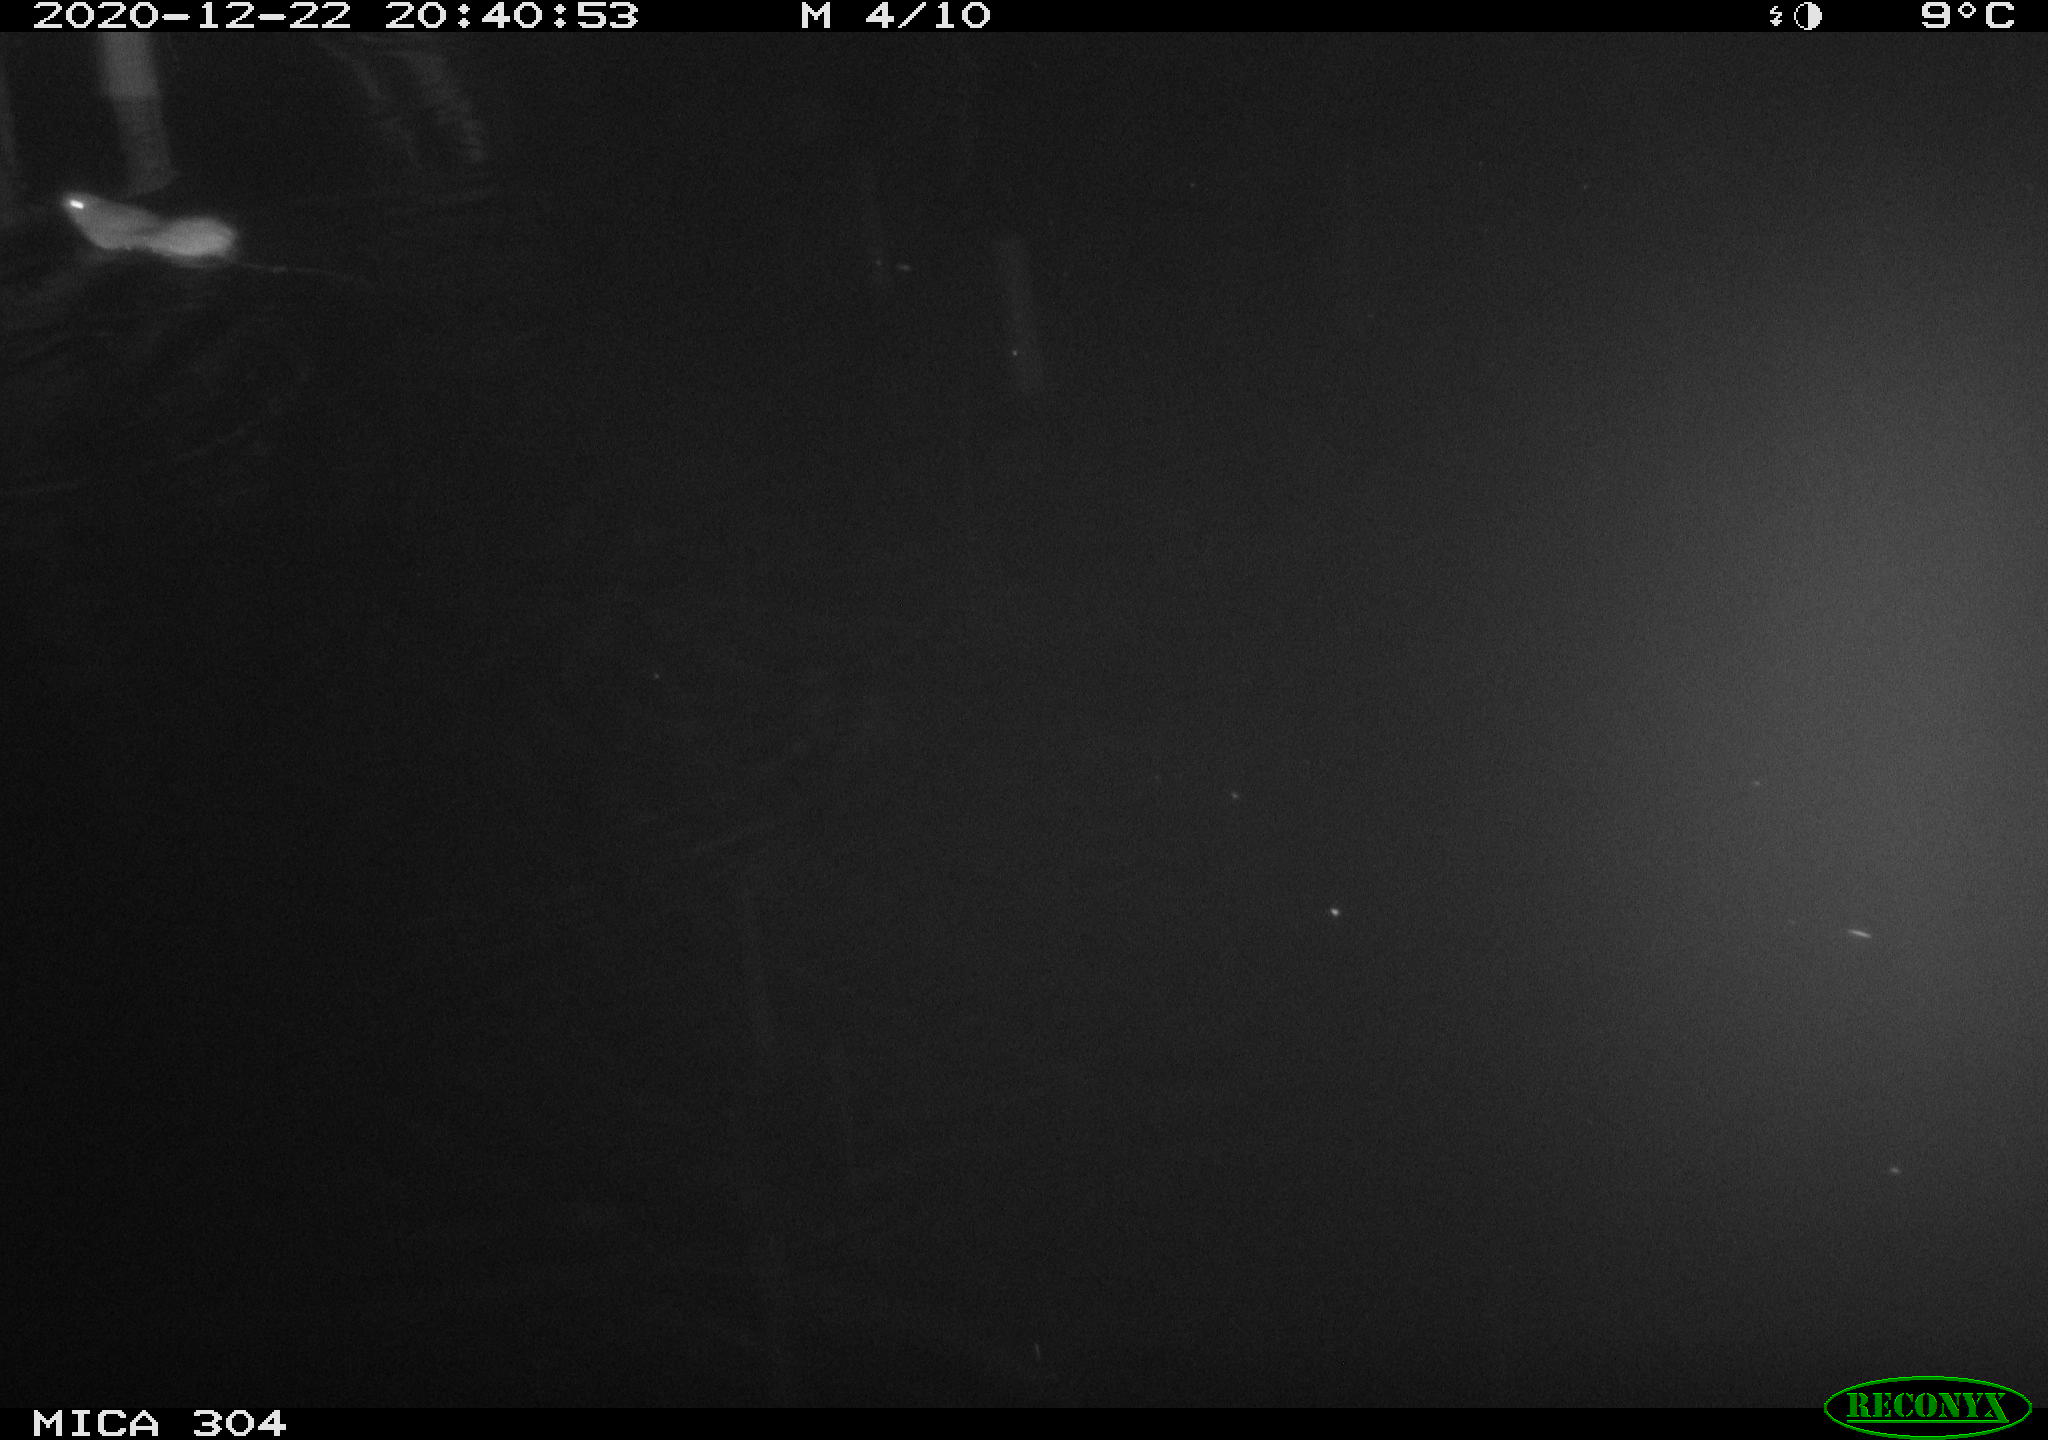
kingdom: Animalia
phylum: Chordata
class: Mammalia
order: Rodentia
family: Muridae
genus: Rattus
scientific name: Rattus norvegicus
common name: Brown rat
